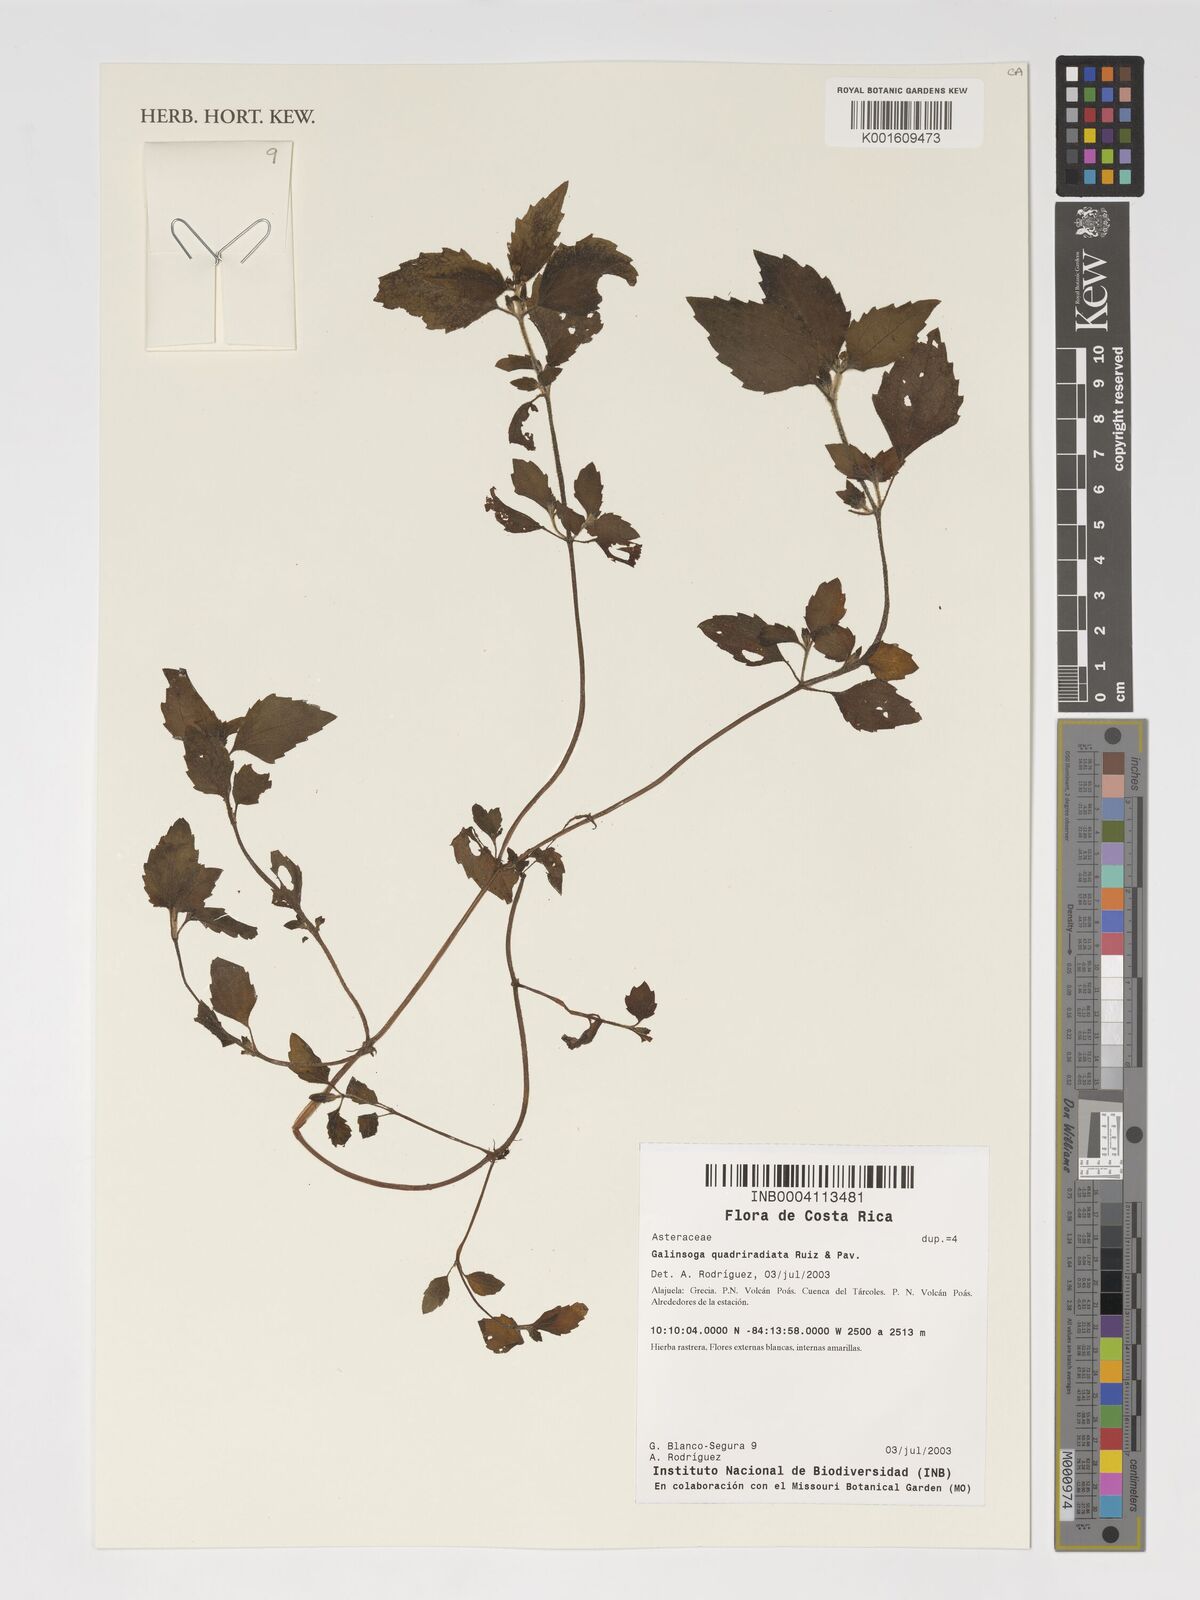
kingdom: Plantae
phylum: Tracheophyta
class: Magnoliopsida
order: Asterales
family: Asteraceae
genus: Galinsoga
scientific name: Galinsoga quadriradiata
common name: Shaggy soldier
